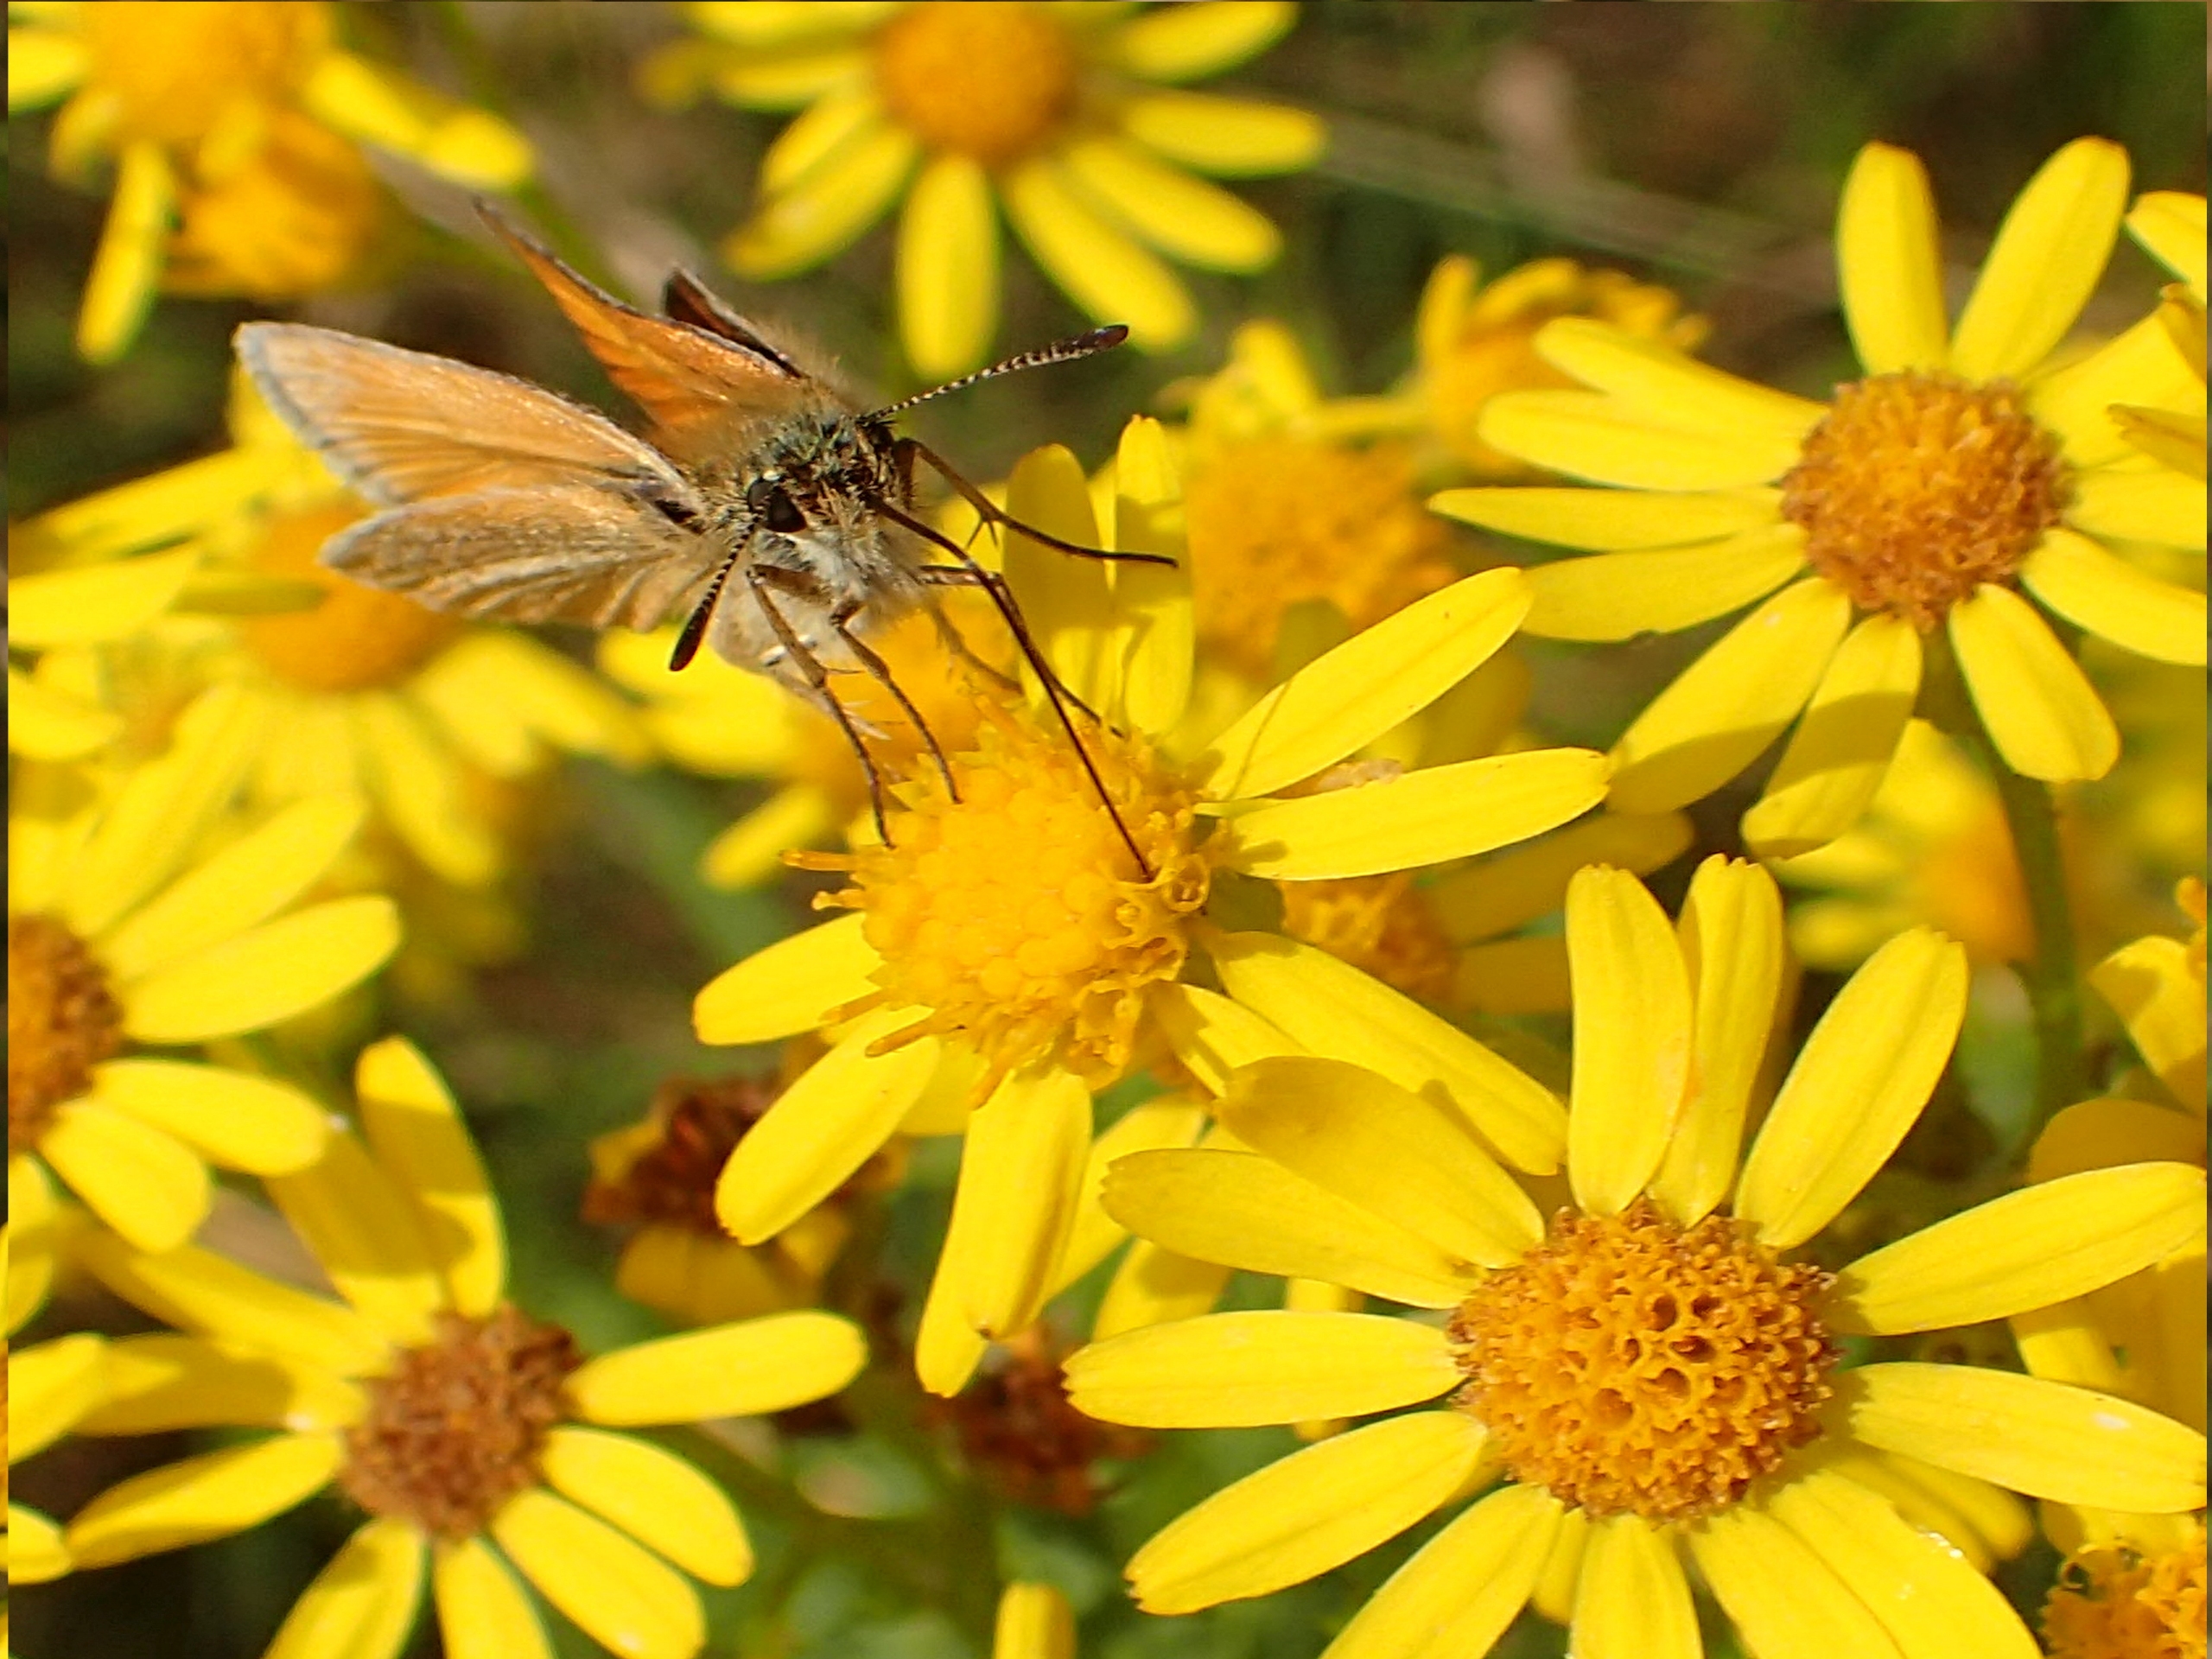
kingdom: Plantae
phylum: Tracheophyta
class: Magnoliopsida
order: Asterales
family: Asteraceae
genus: Jacobaea
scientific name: Jacobaea vulgaris
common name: Eng-brandbæger
